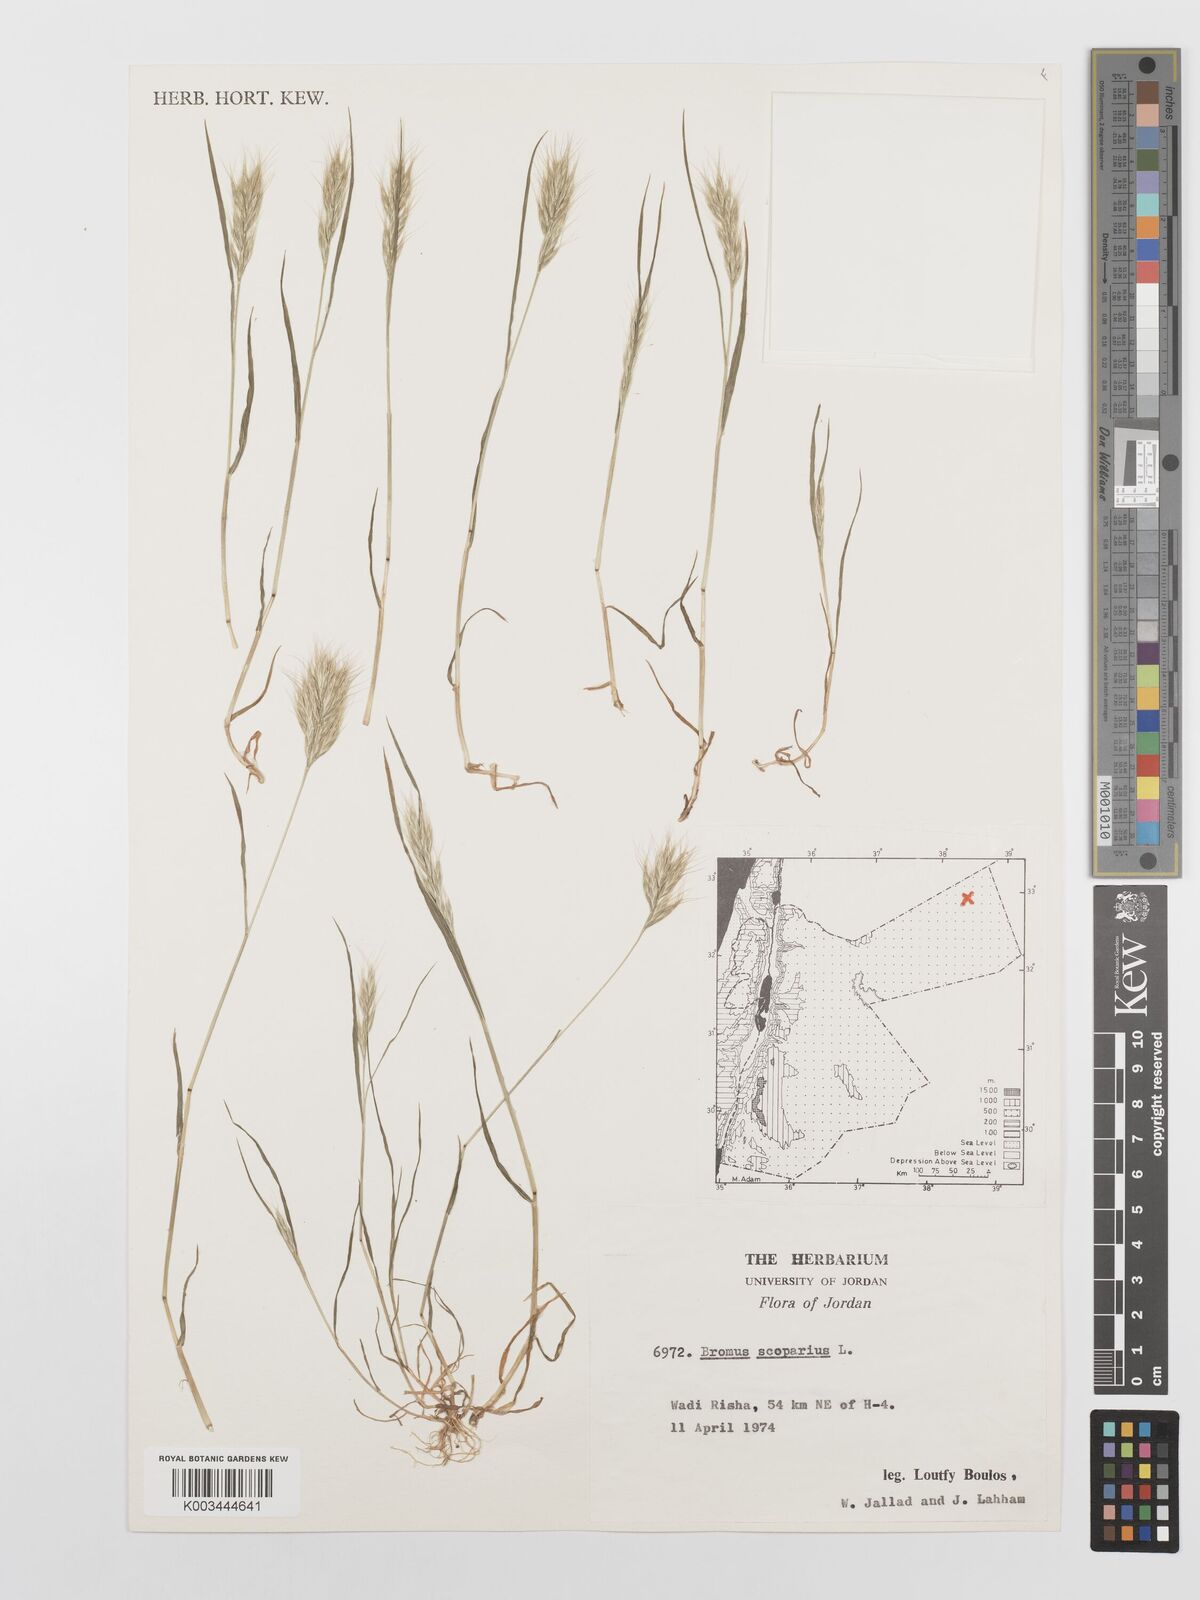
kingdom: Plantae
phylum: Tracheophyta
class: Liliopsida
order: Poales
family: Poaceae
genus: Bromus
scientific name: Bromus scoparius
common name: Broom brome
